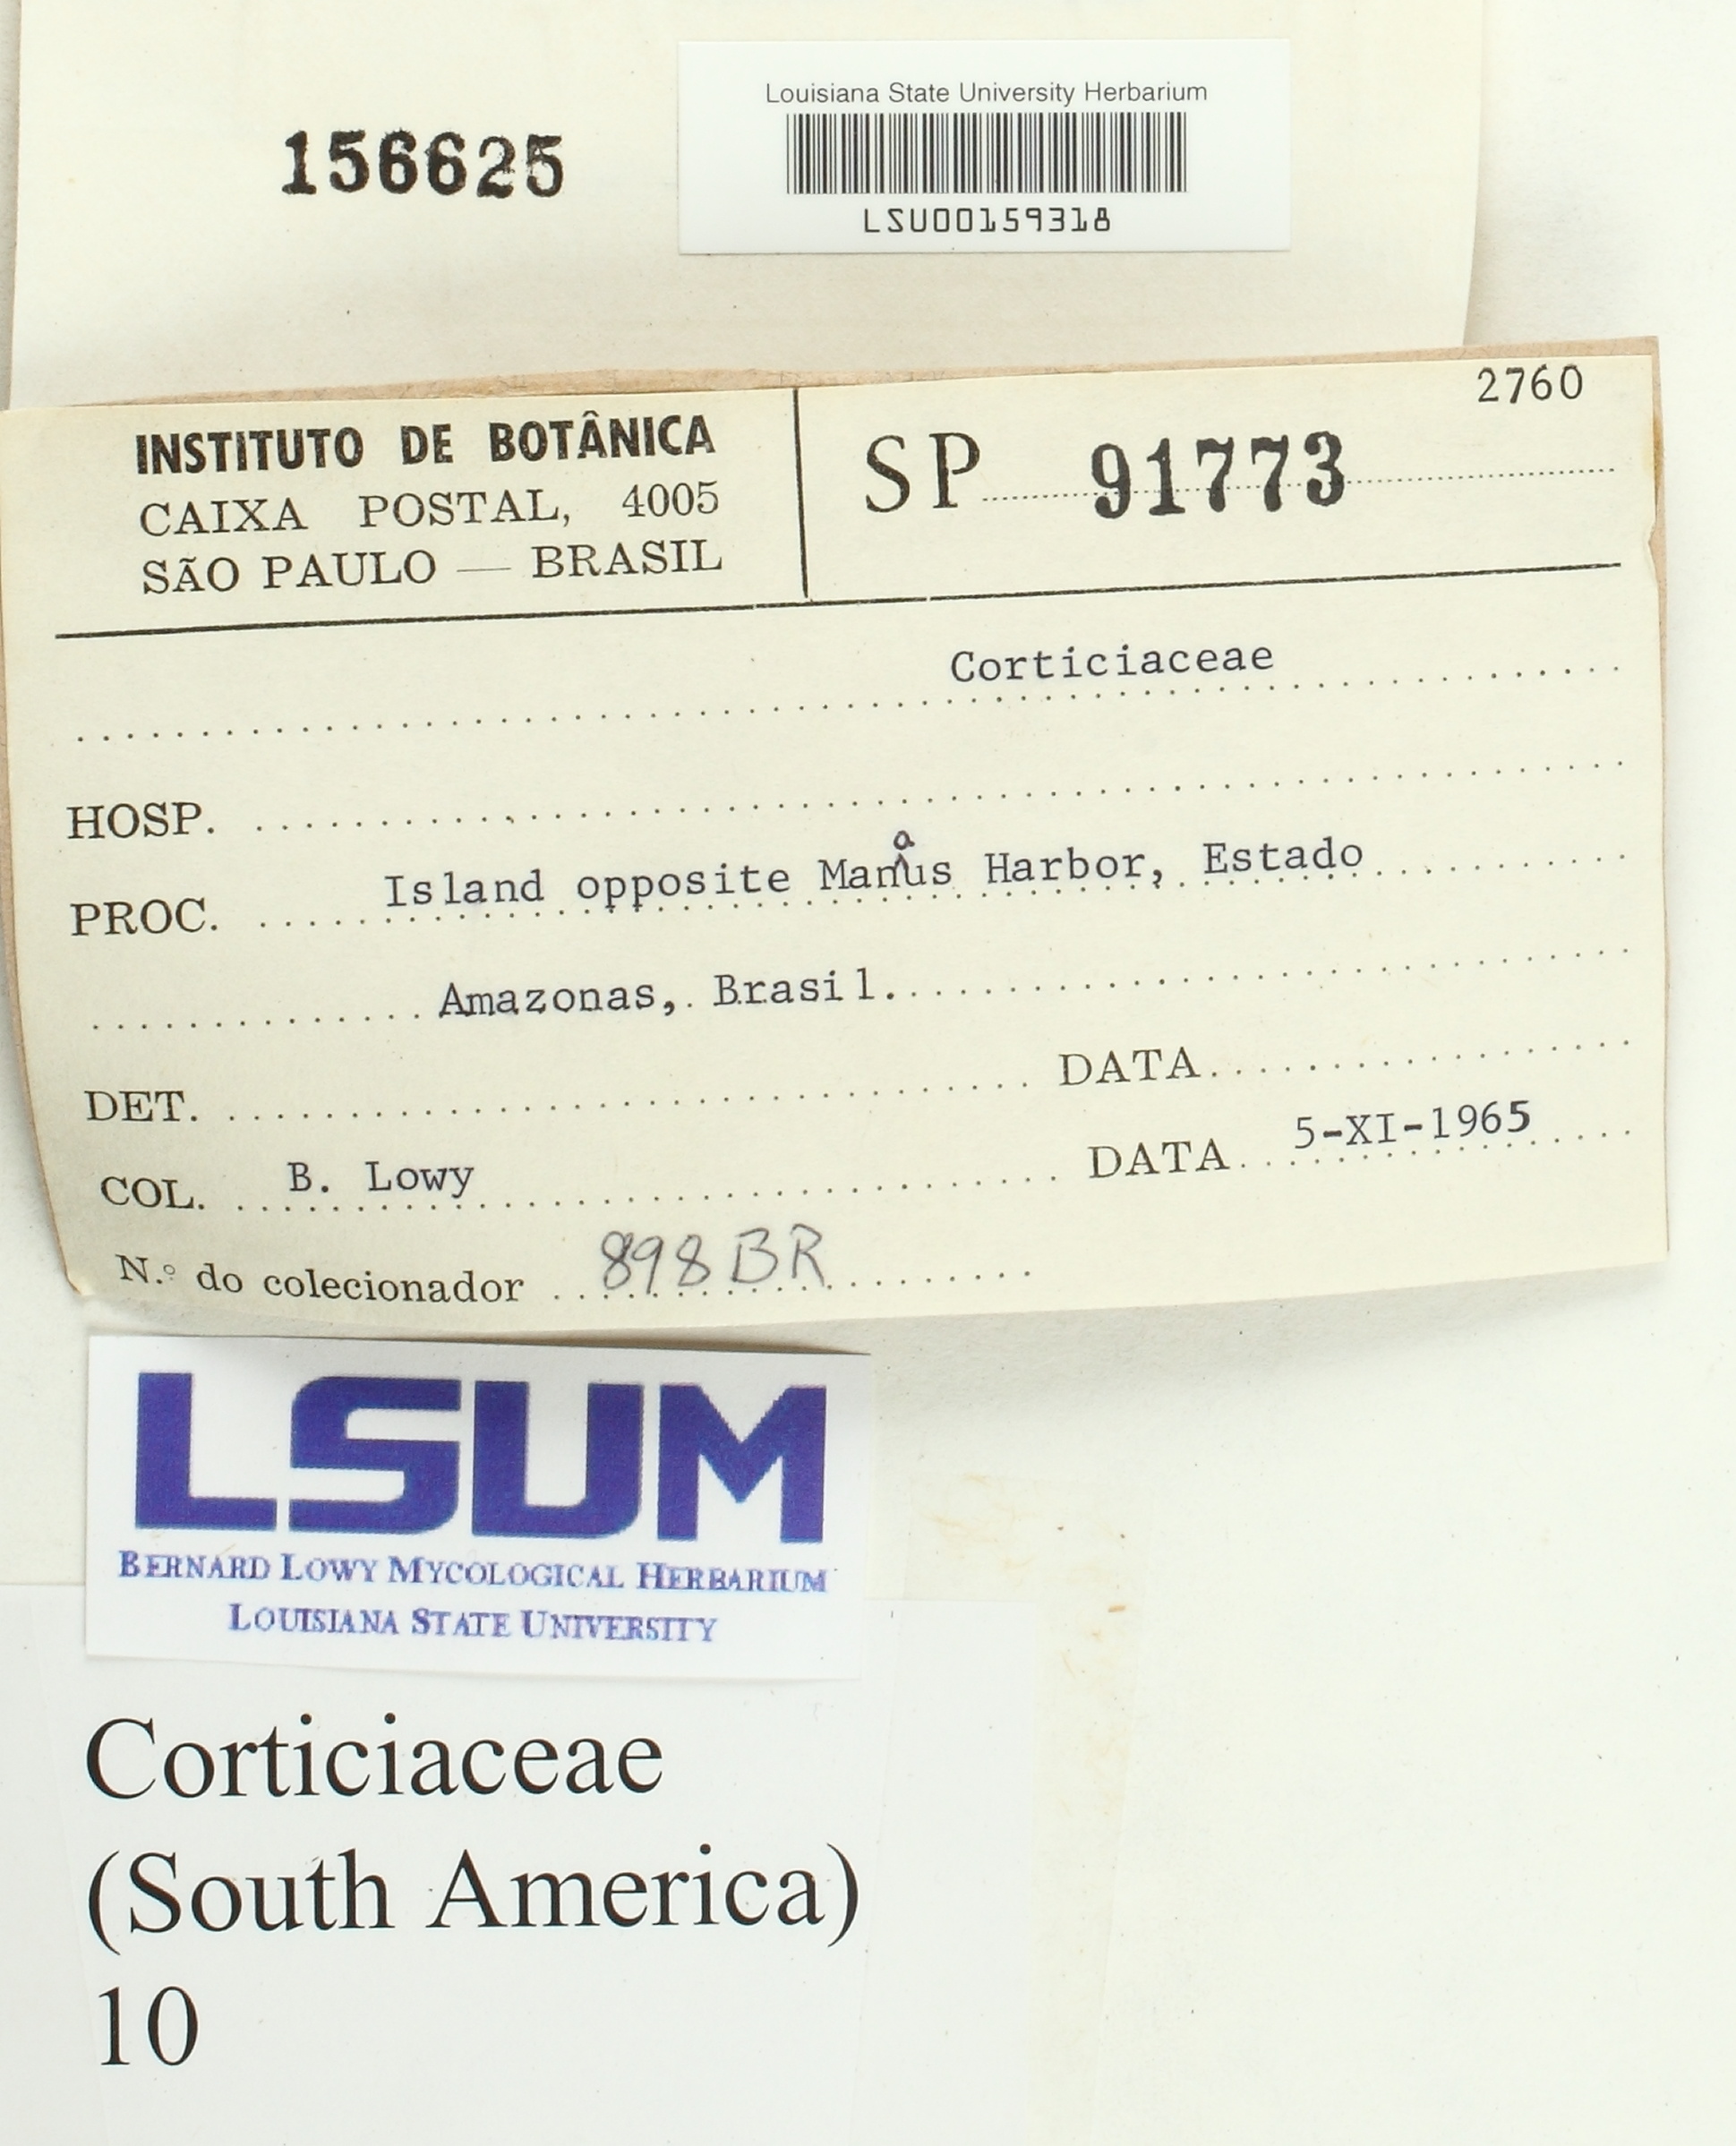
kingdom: Fungi
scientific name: Fungi
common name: Fungi
